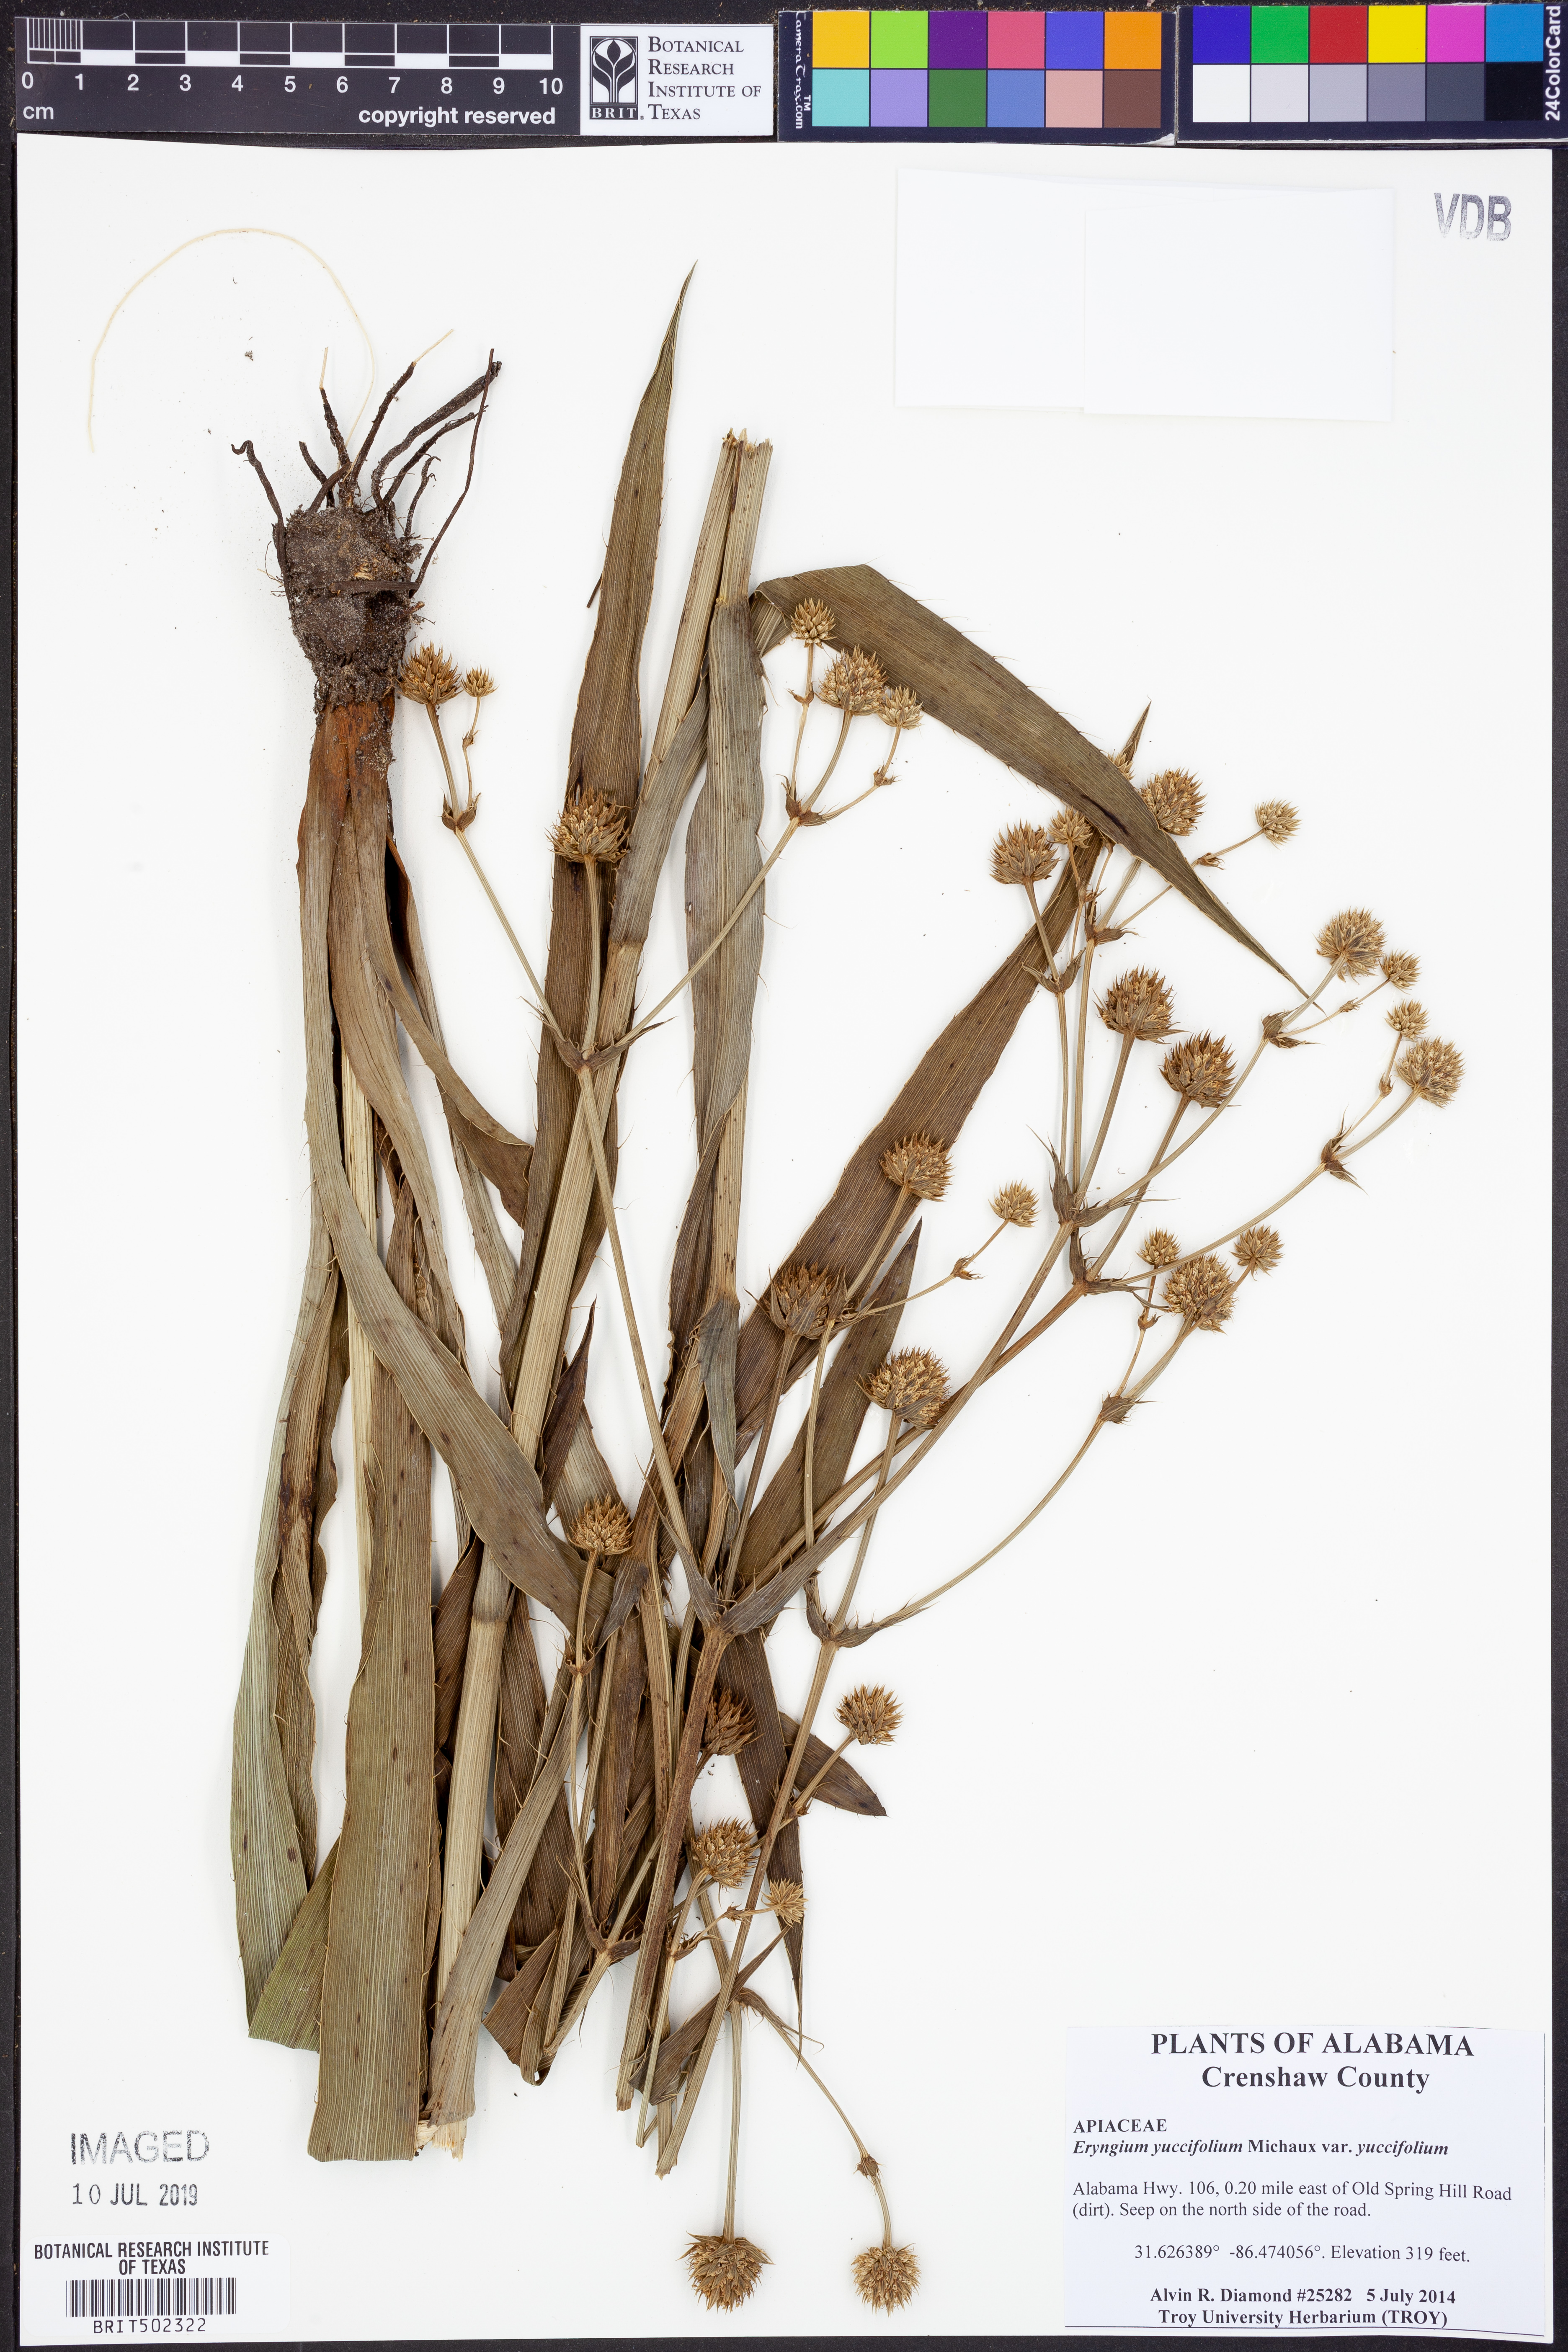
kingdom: Plantae
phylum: Tracheophyta
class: Magnoliopsida
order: Apiales
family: Apiaceae
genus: Eryngium
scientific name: Eryngium yuccifolium
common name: Button eryngo
